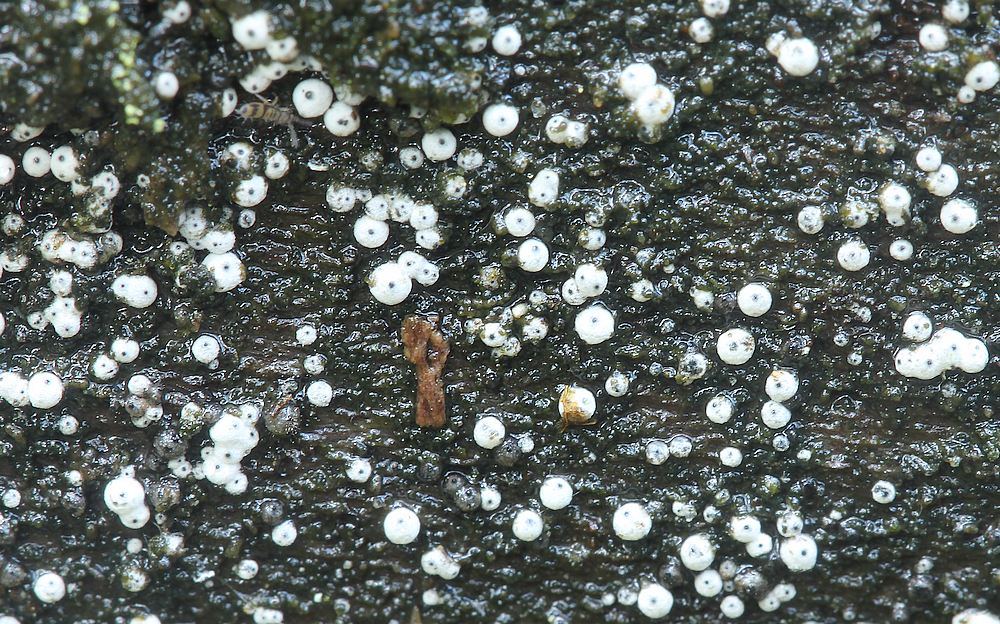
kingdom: Fungi
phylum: Ascomycota
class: Sordariomycetes
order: Sordariales
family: Lasiosphaeriaceae
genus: Lasiosphaeria
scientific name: Lasiosphaeria ovina
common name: fåre-kernesvamp
